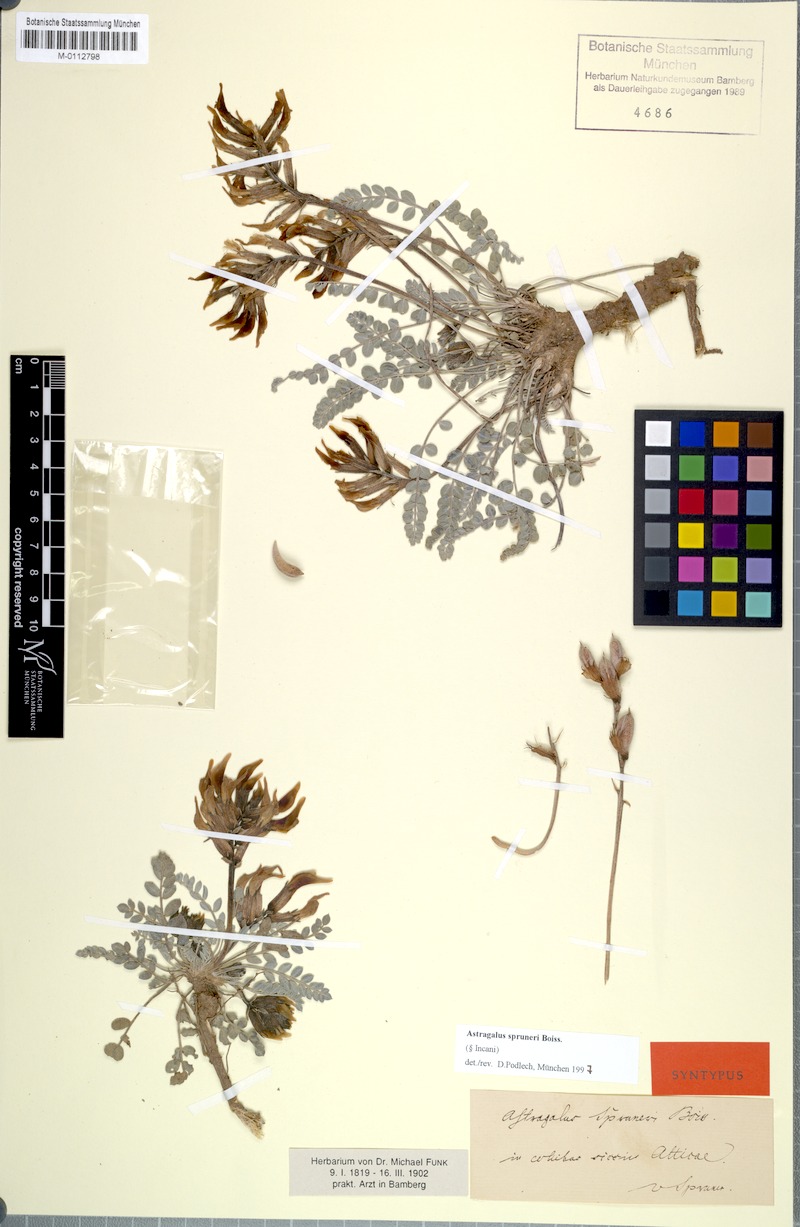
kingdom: Plantae
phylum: Tracheophyta
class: Magnoliopsida
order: Fabales
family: Fabaceae
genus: Astragalus
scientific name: Astragalus spruneri
